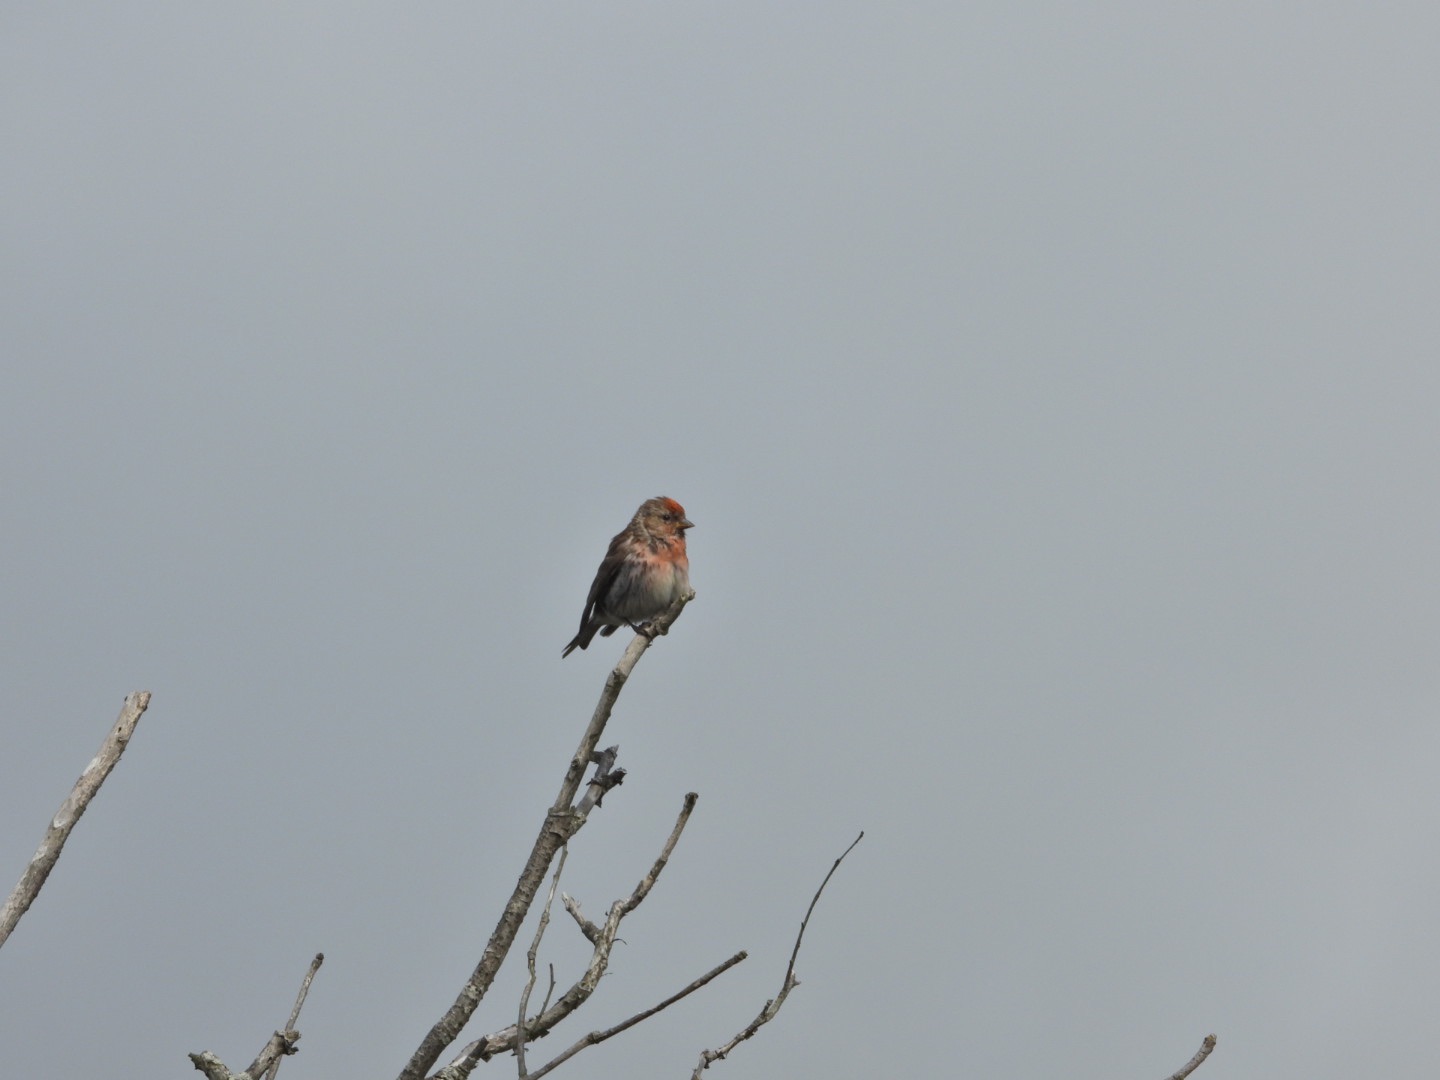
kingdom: Animalia
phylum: Chordata
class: Aves
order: Passeriformes
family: Fringillidae
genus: Acanthis
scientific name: Acanthis flammea
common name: Lille gråsisken
